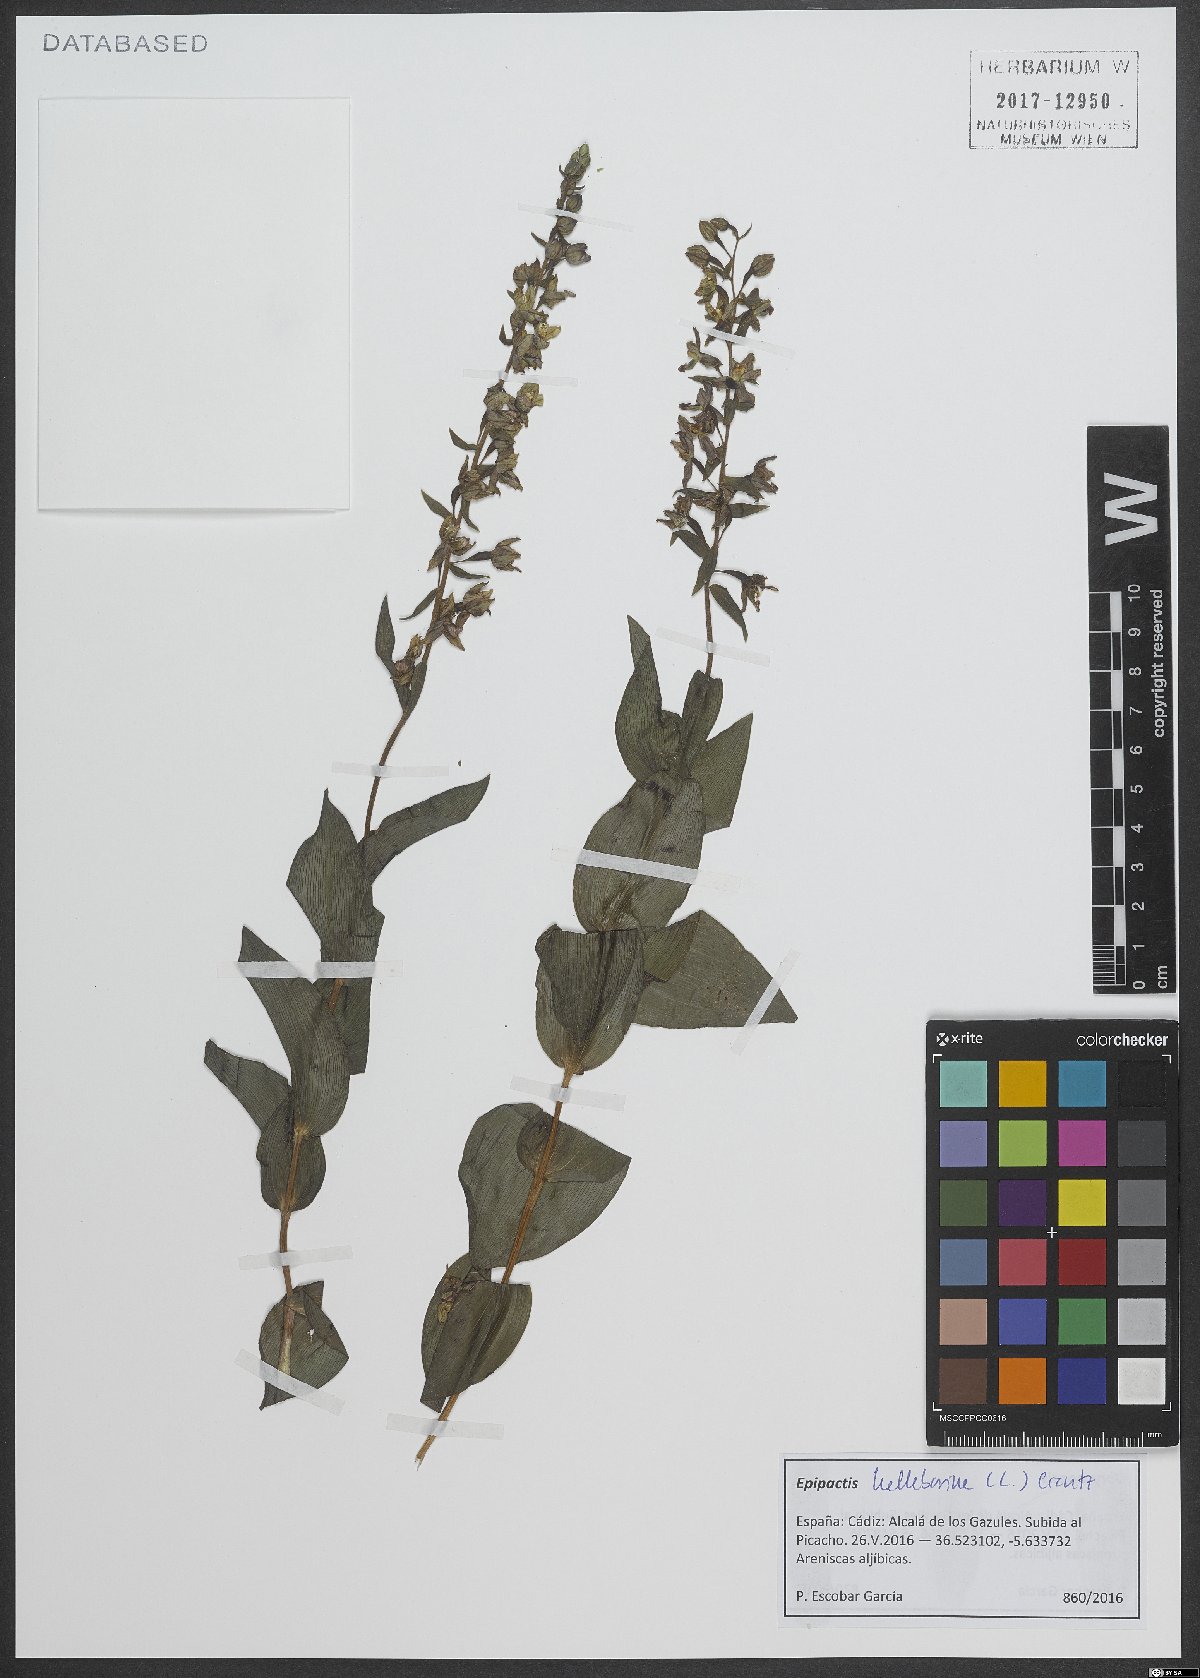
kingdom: Plantae
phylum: Tracheophyta
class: Liliopsida
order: Asparagales
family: Orchidaceae
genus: Epipactis
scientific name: Epipactis helleborine
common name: Broad-leaved helleborine
